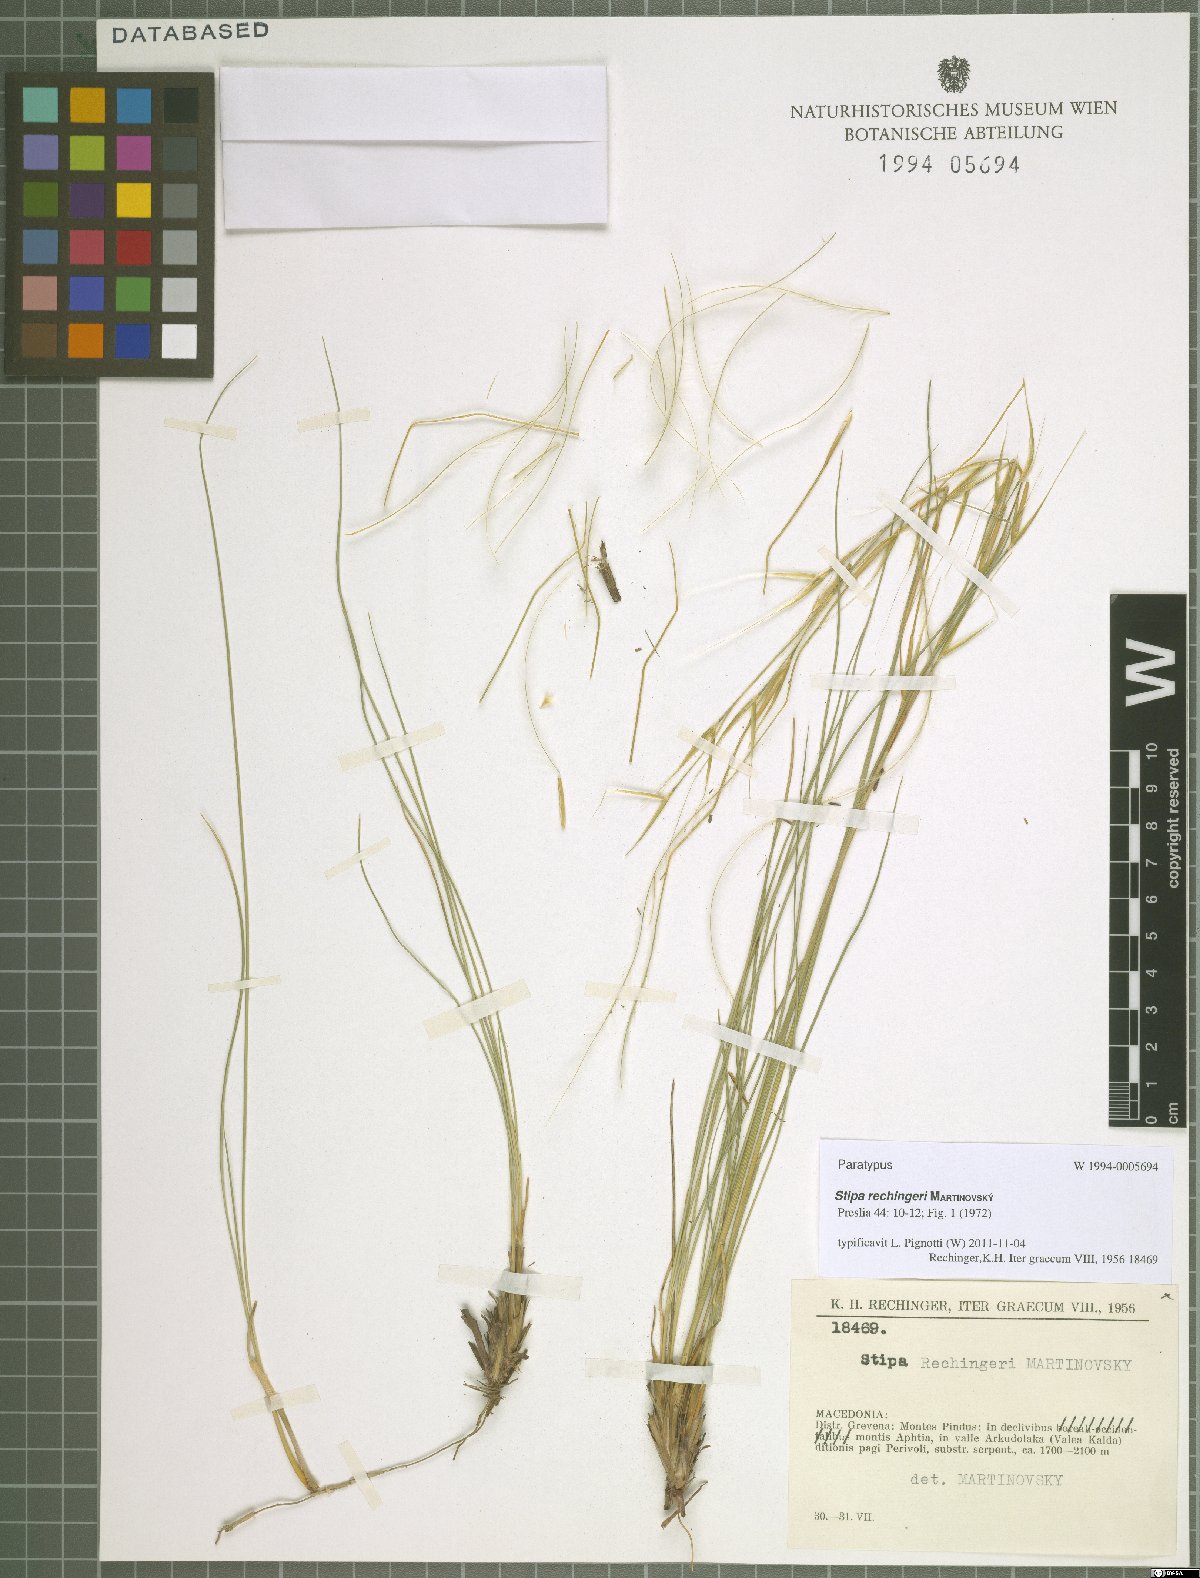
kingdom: Plantae
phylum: Tracheophyta
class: Liliopsida
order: Poales
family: Poaceae
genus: Stipa
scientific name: Stipa rechingeri
